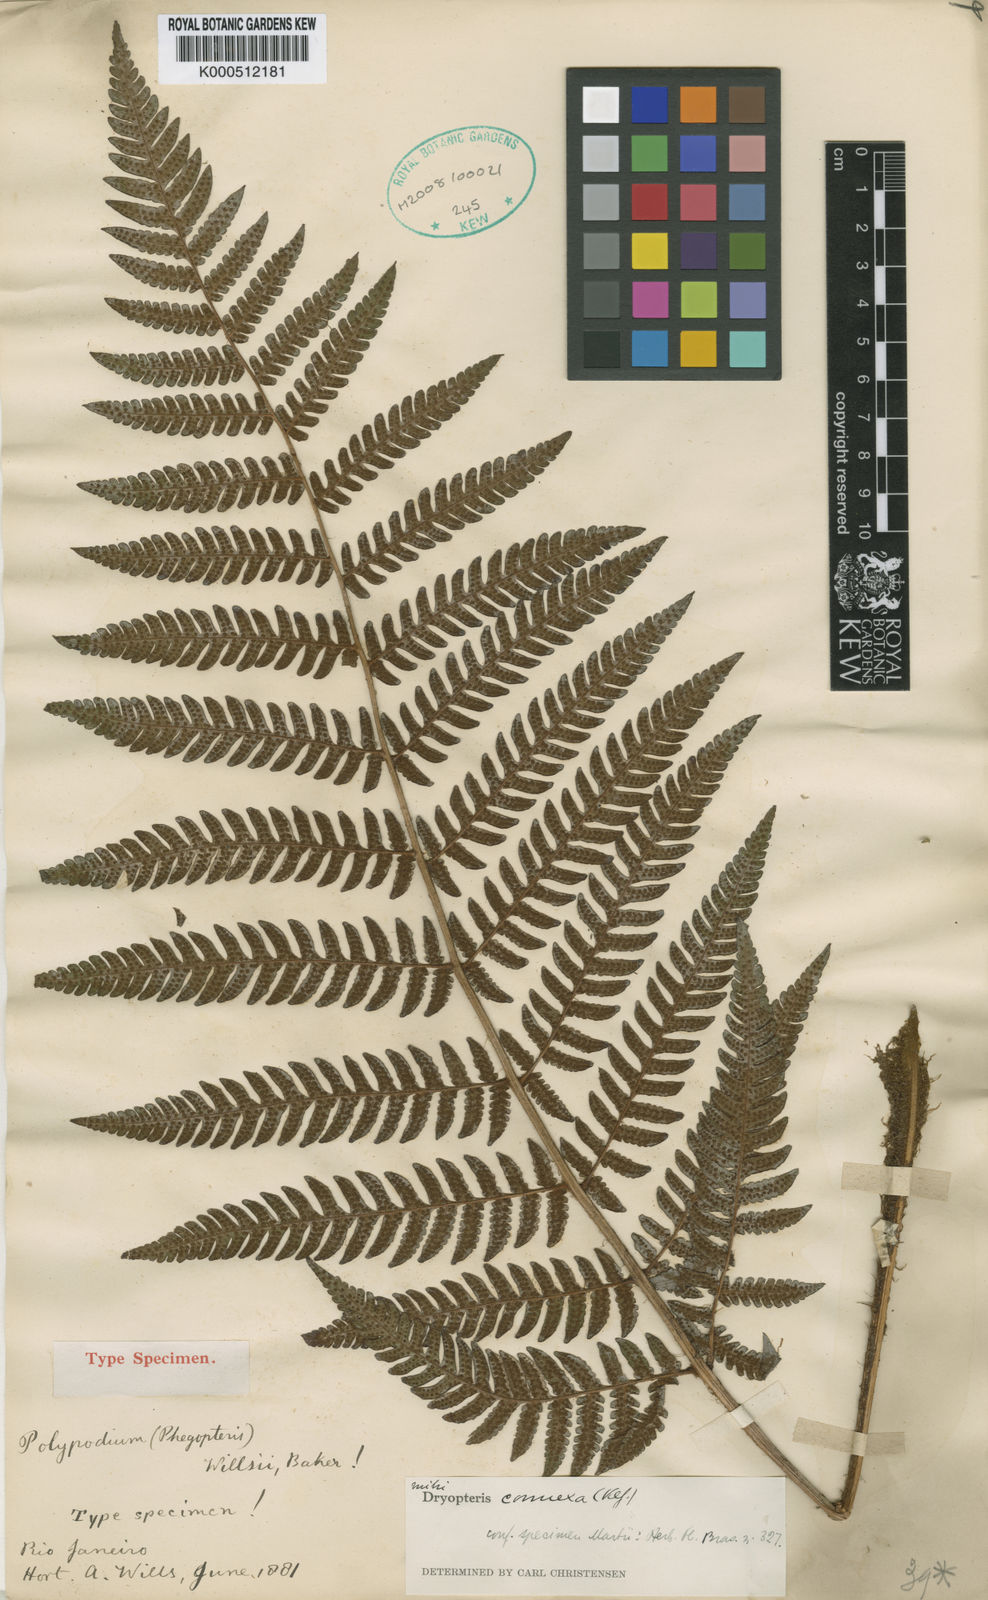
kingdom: Plantae
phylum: Tracheophyta
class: Polypodiopsida
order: Polypodiales
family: Dryopteridaceae
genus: Megalastrum
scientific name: Megalastrum connexum
